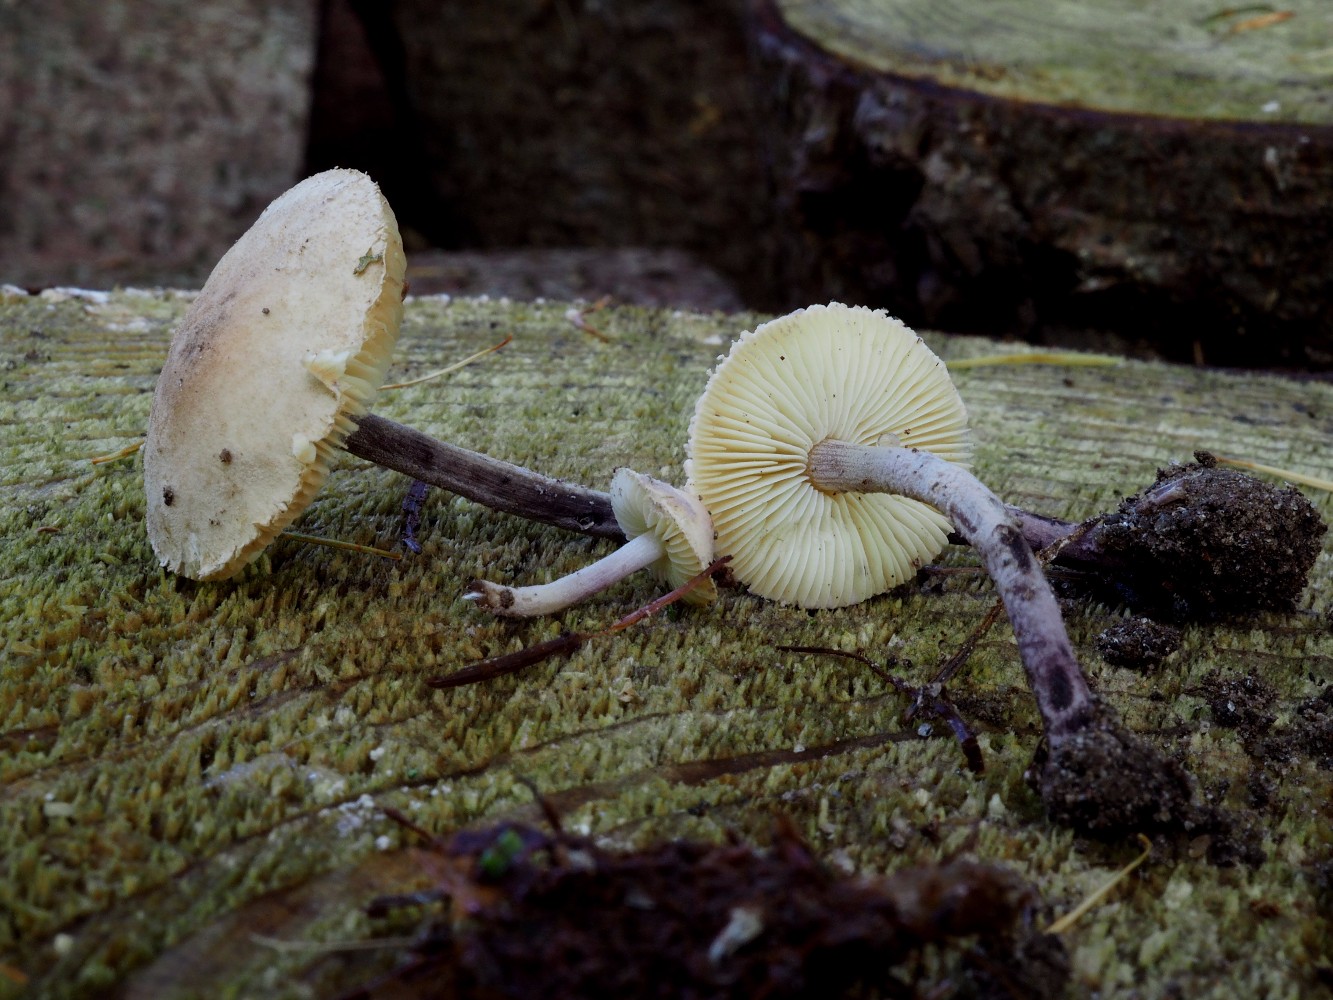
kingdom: Fungi
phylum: Basidiomycota
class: Agaricomycetes
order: Agaricales
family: Agaricaceae
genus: Cystolepiota
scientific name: Cystolepiota bucknallii
